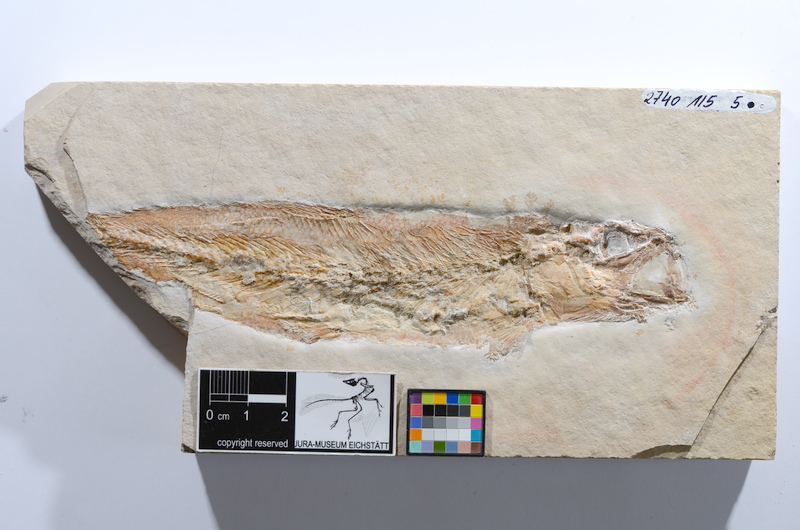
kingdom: Animalia
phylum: Chordata
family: Ascalaboidae
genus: Tharsis
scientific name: Tharsis dubius
